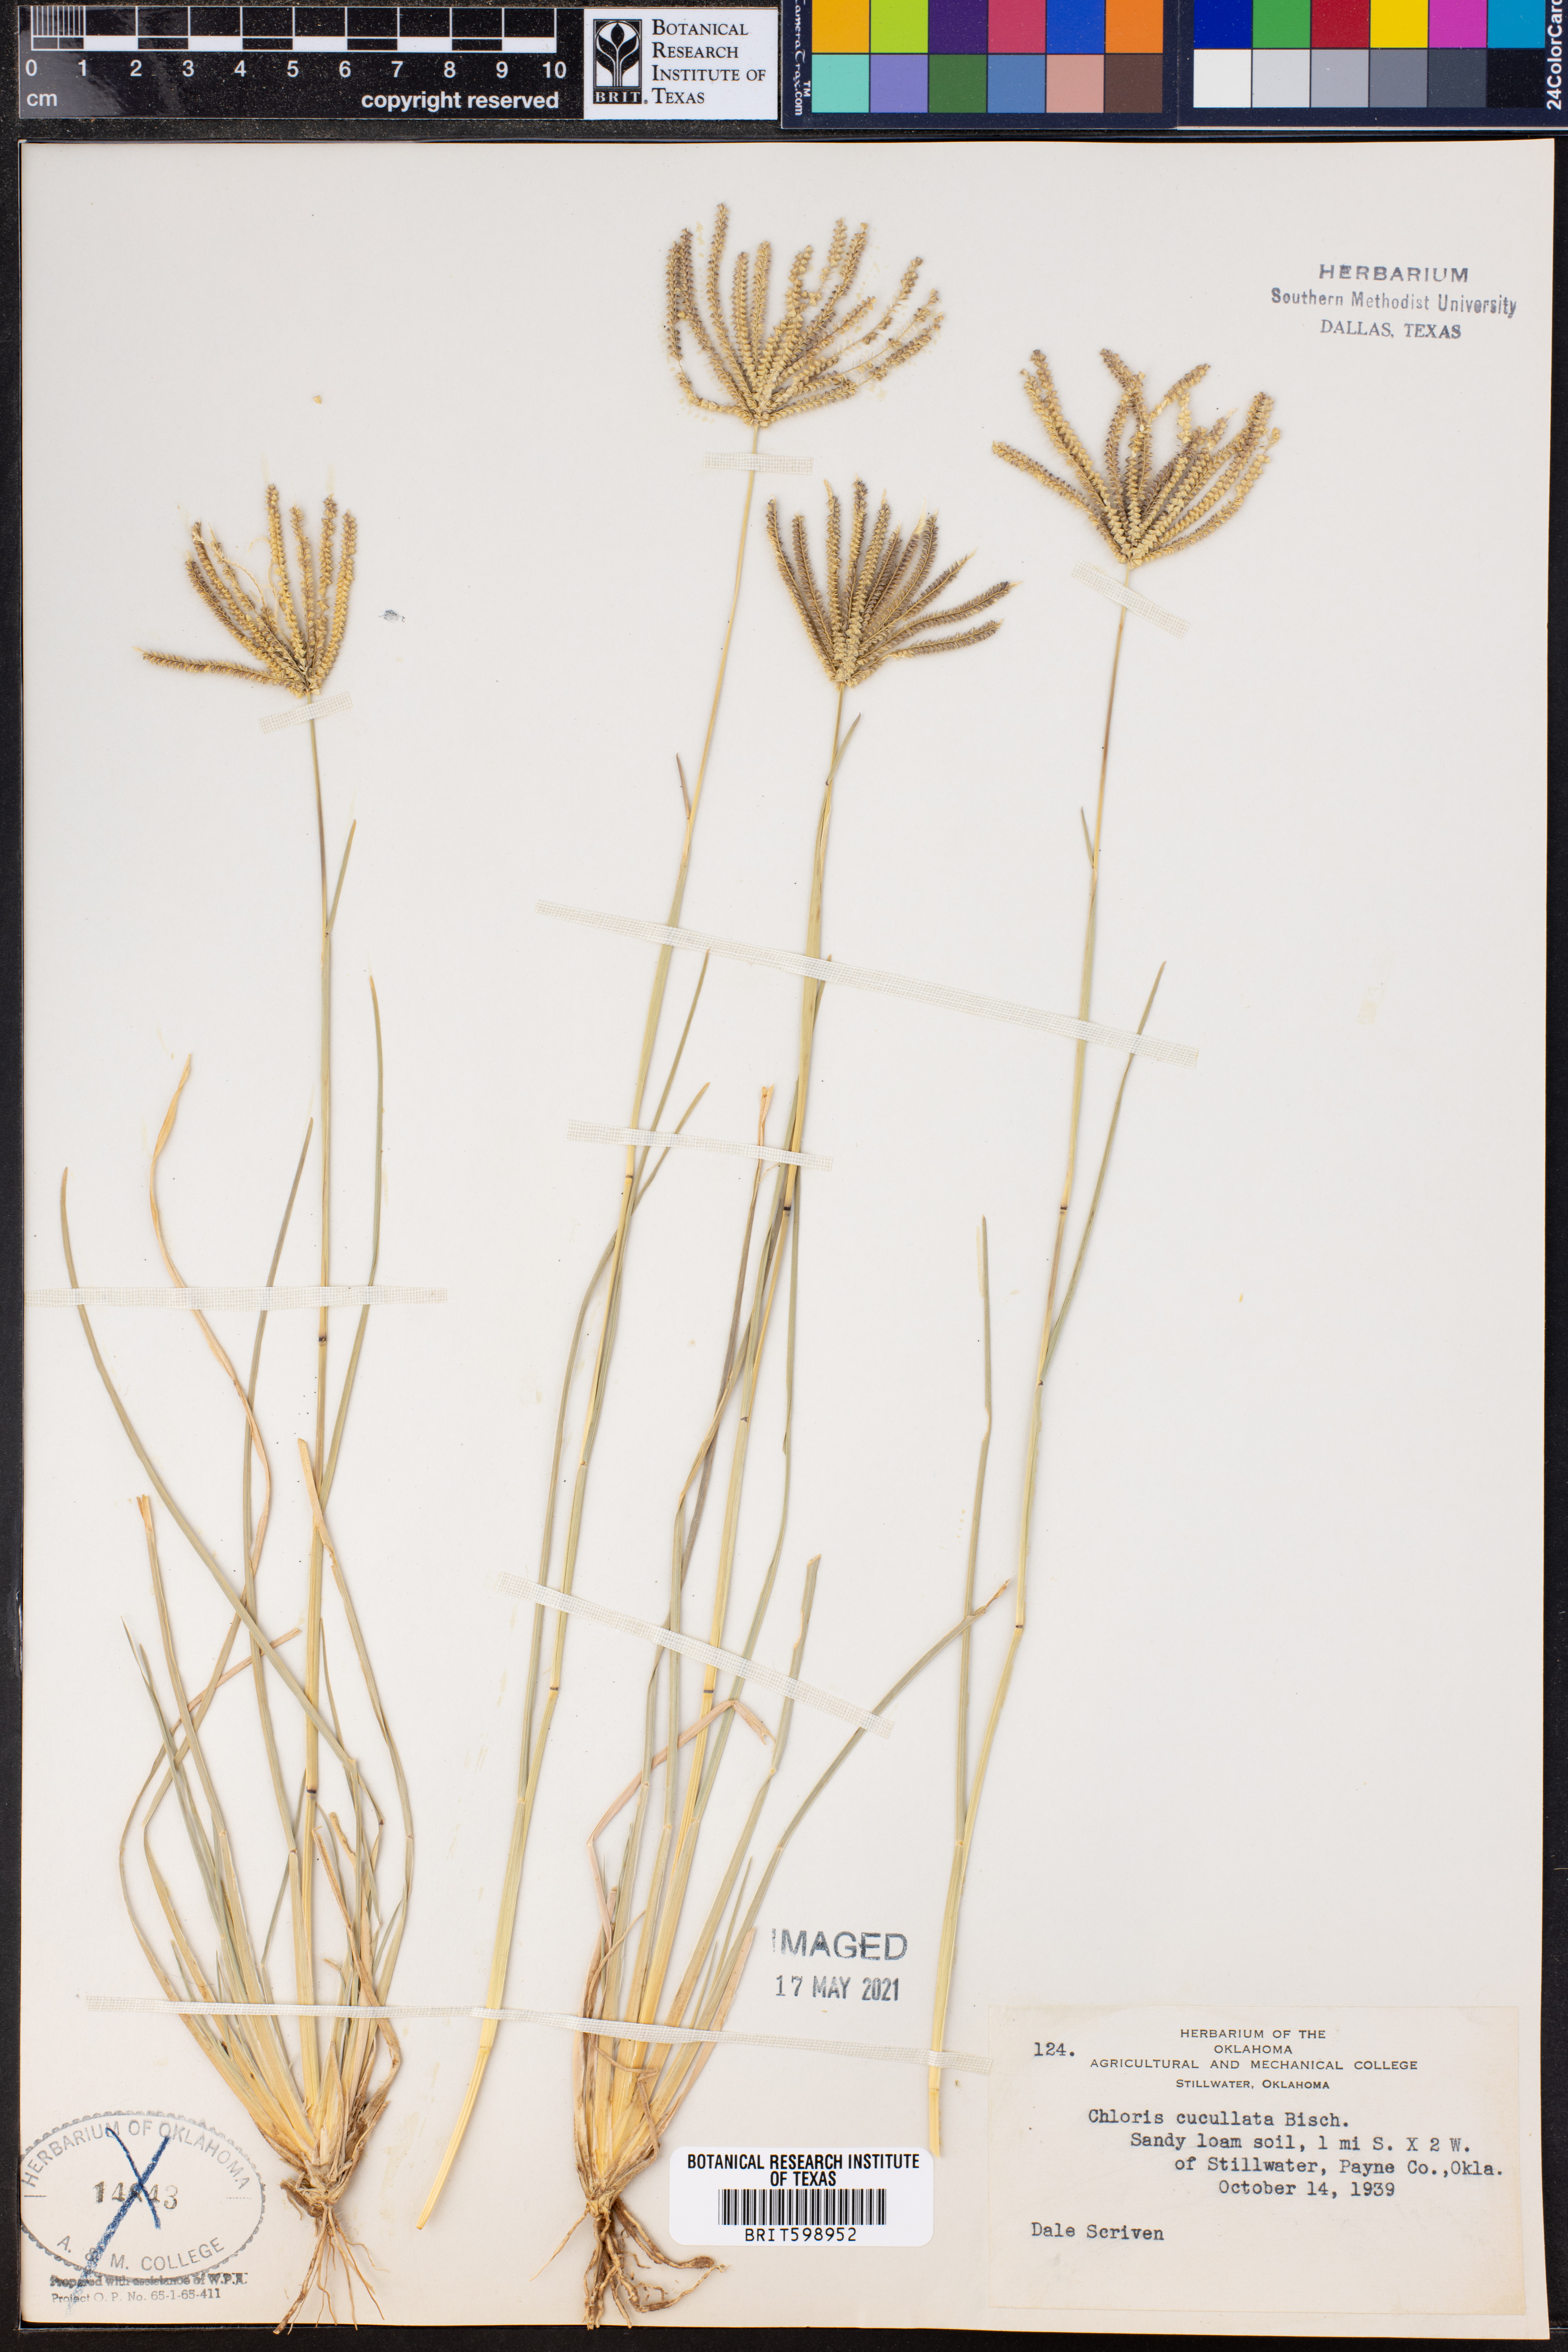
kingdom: Plantae
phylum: Tracheophyta
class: Liliopsida
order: Poales
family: Poaceae
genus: Chloris
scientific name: Chloris cucullata
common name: Hooded windmill grass
